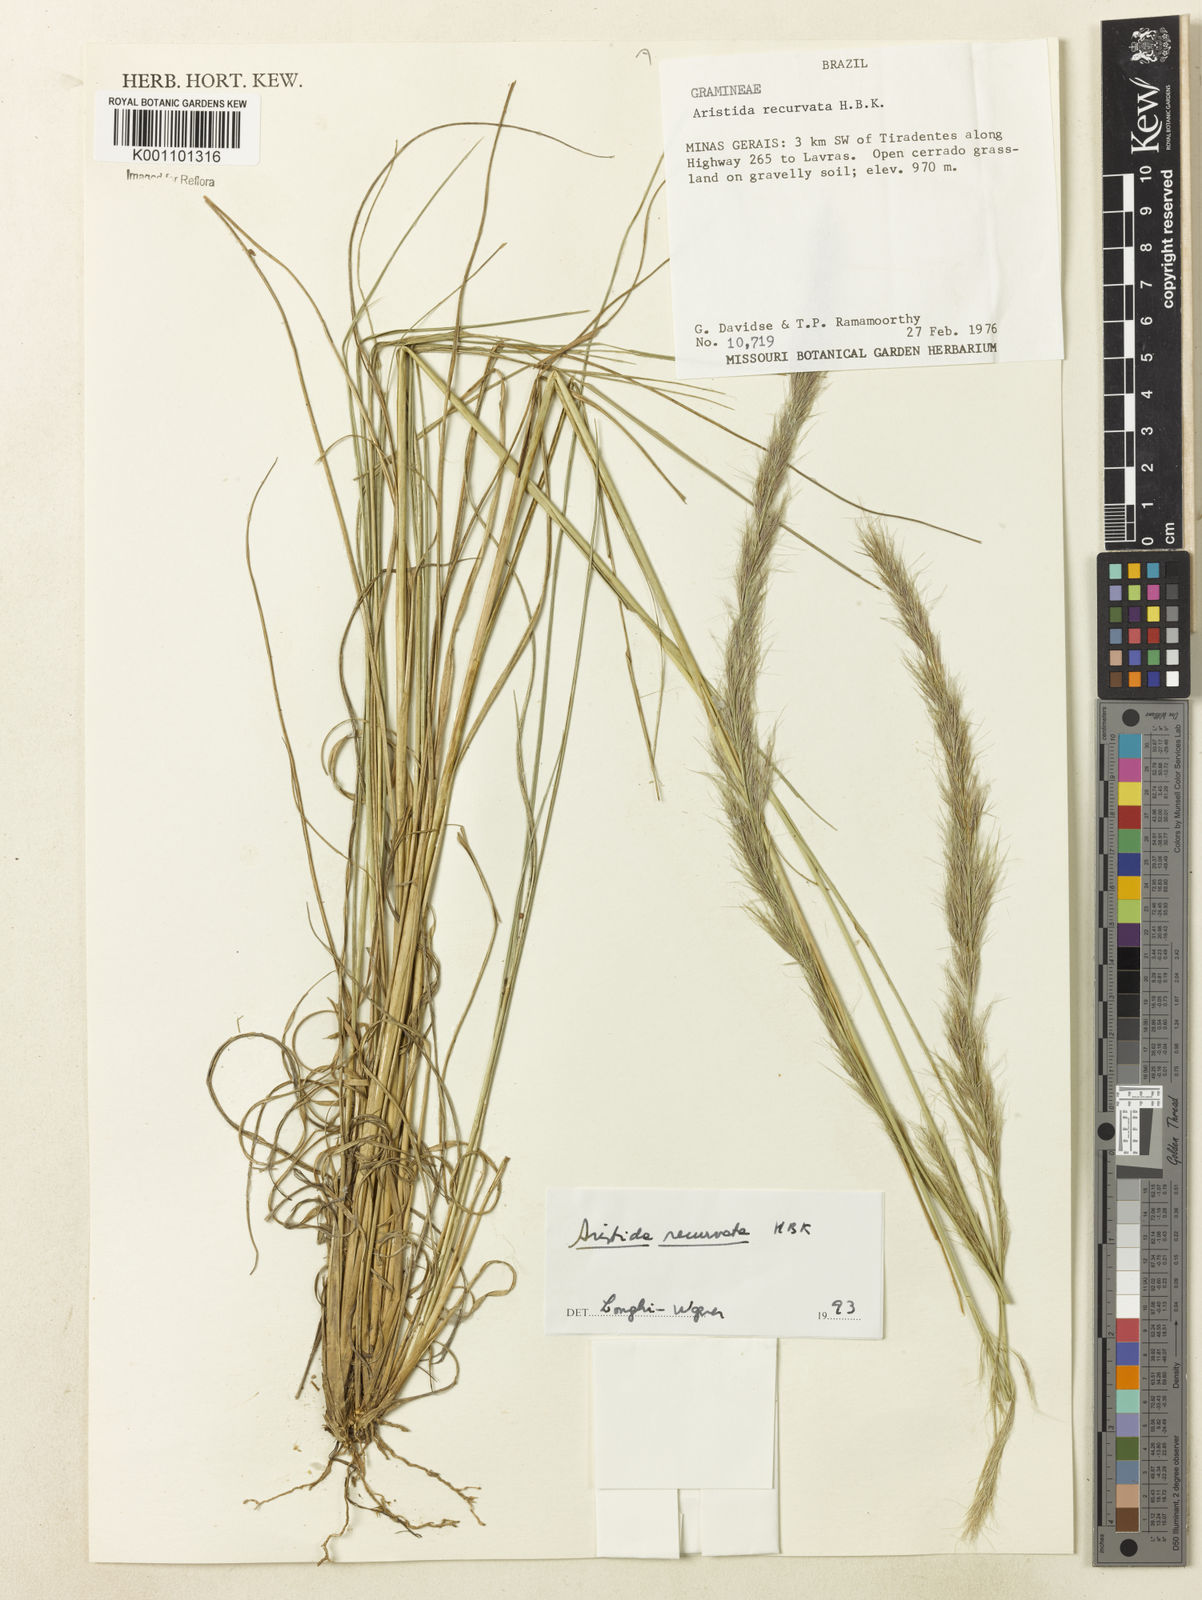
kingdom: Plantae
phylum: Tracheophyta
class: Liliopsida
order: Poales
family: Poaceae
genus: Aristida
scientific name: Aristida recurvata
